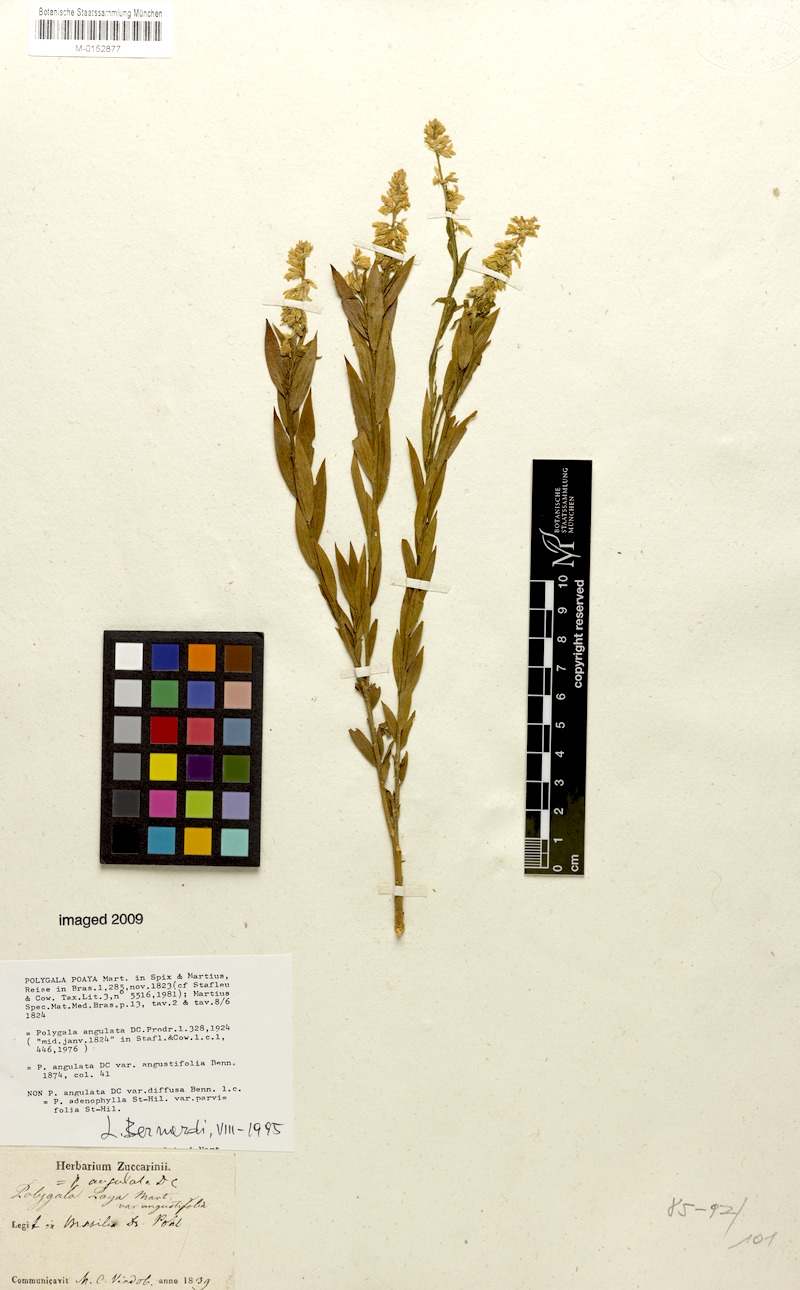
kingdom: Plantae
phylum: Tracheophyta
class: Magnoliopsida
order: Fabales
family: Polygalaceae
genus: Polygala
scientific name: Polygala poaya
